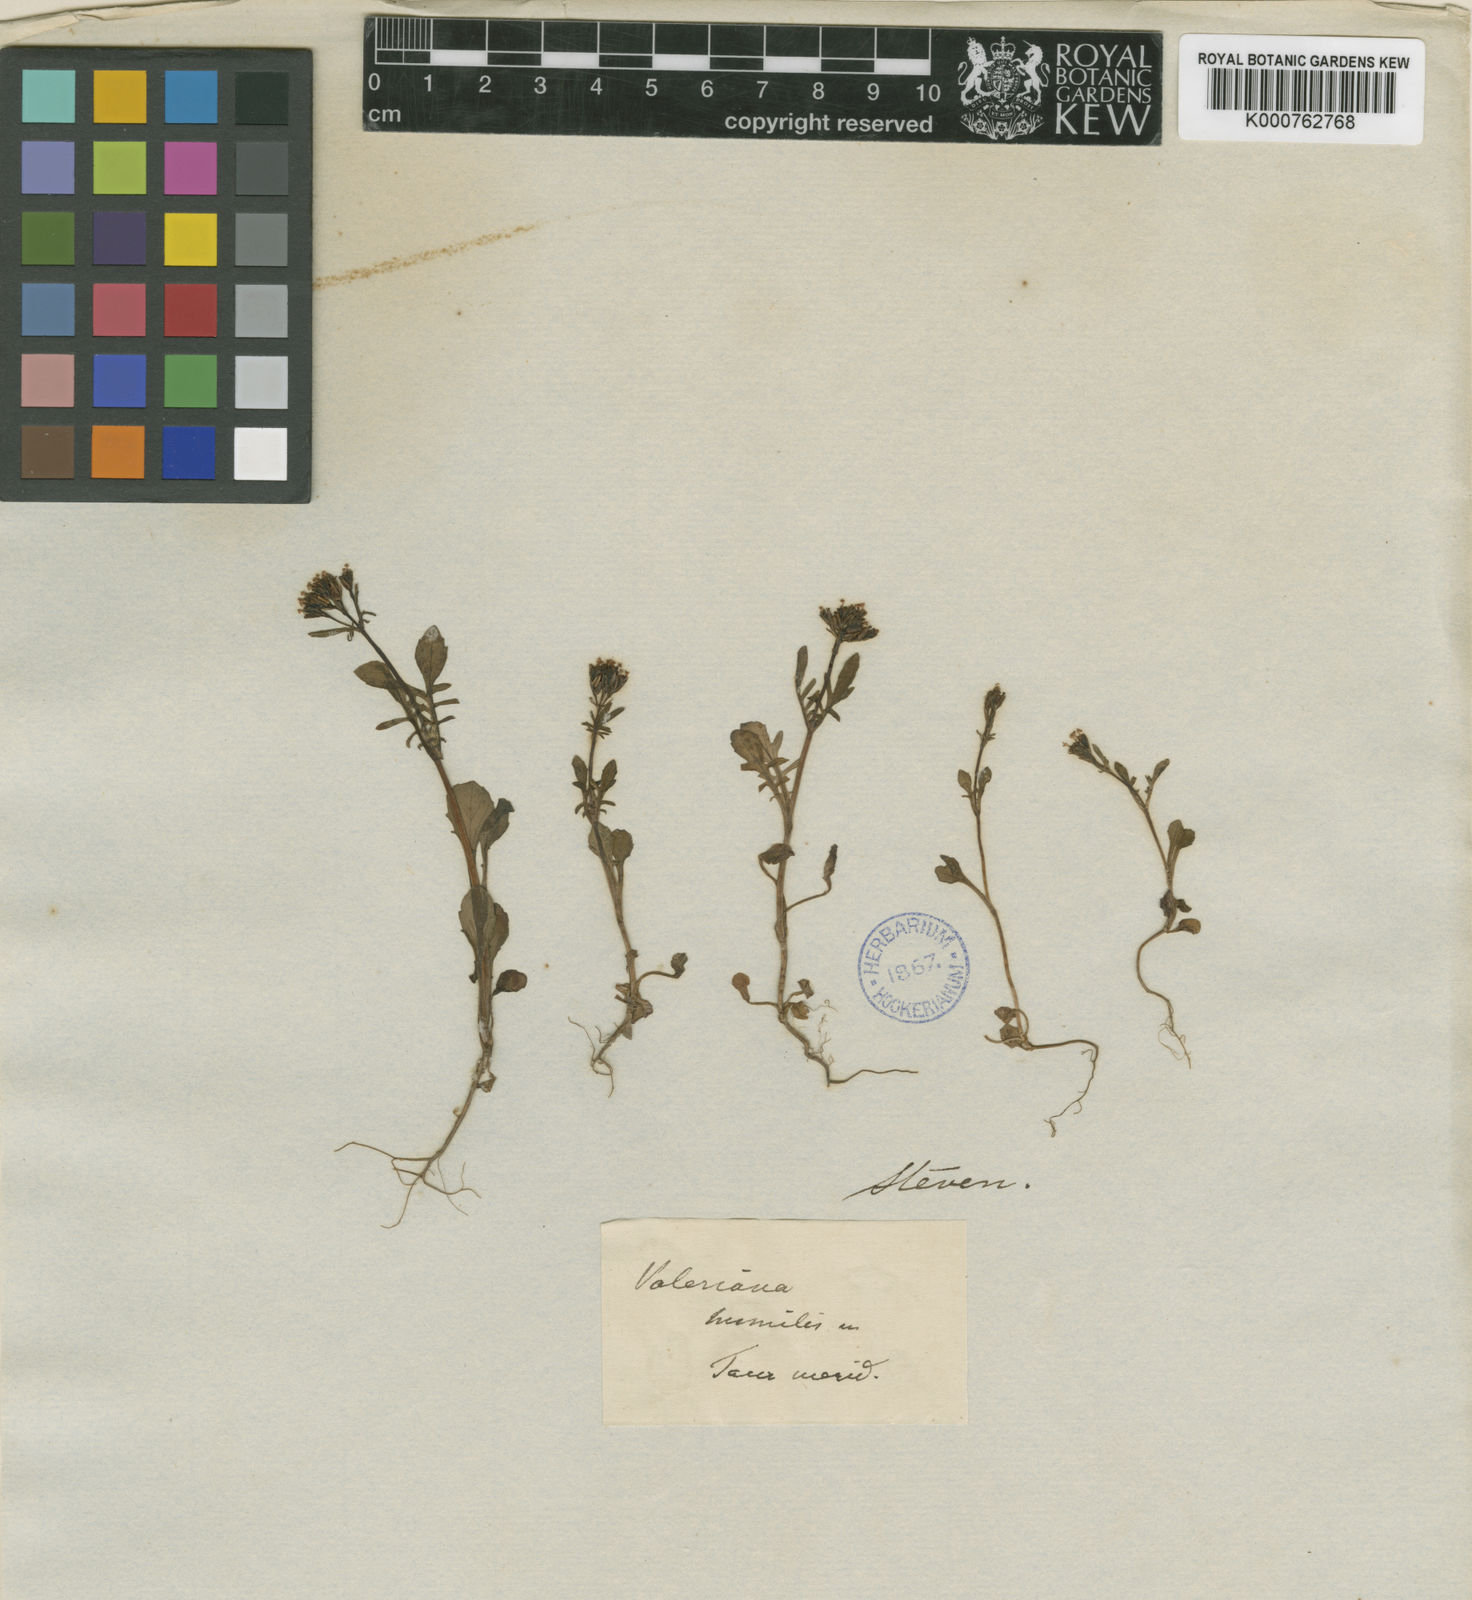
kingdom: Plantae
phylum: Tracheophyta
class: Magnoliopsida
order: Dipsacales
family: Caprifoliaceae
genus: Valeriana
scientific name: Valeriana
